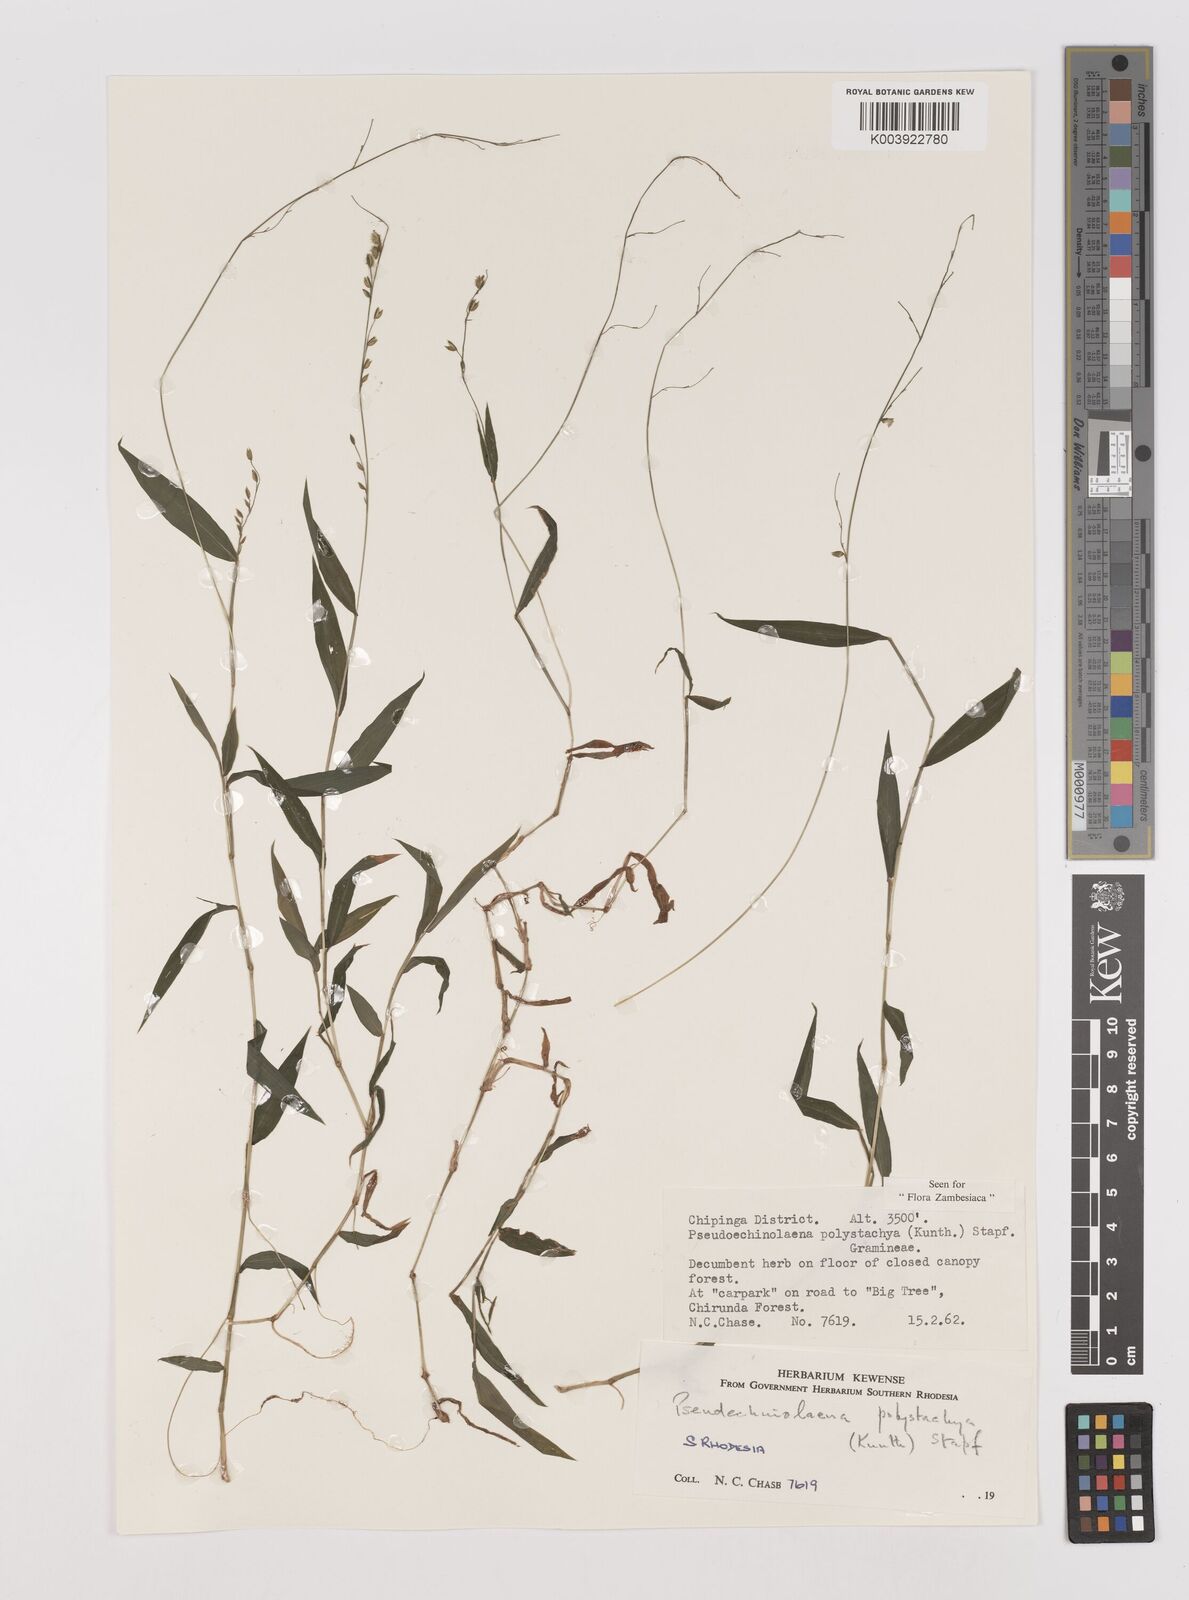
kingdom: Plantae
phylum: Tracheophyta
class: Liliopsida
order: Poales
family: Poaceae
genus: Pseudechinolaena
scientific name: Pseudechinolaena polystachya
